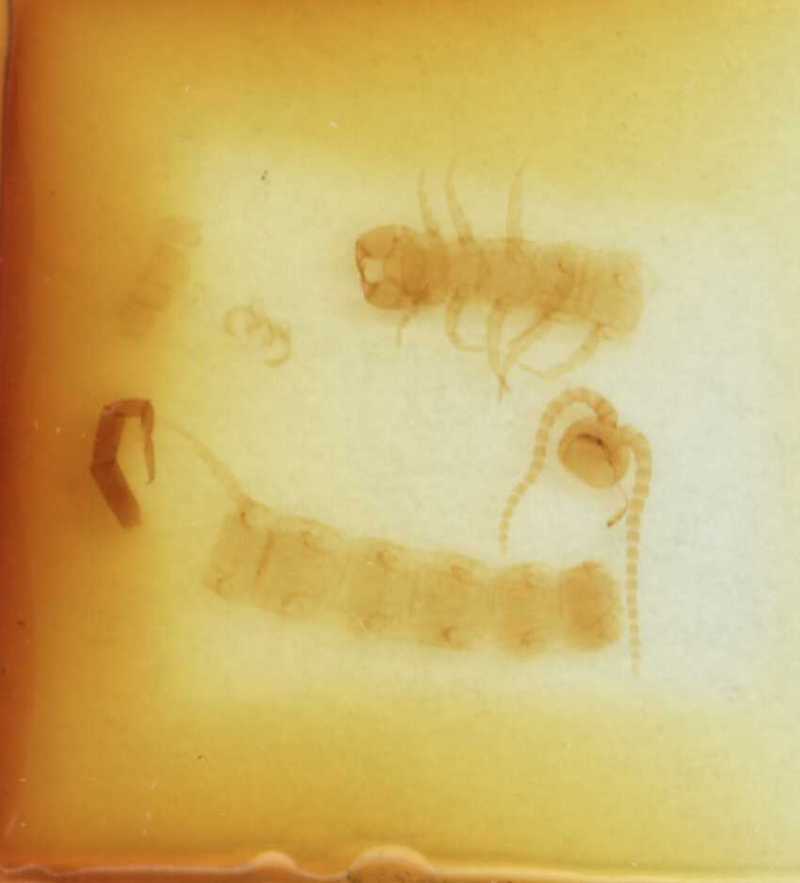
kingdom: Animalia
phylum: Arthropoda
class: Chilopoda
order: Scolopendromorpha
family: Cryptopidae
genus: Cryptops
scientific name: Cryptops nivicomes
